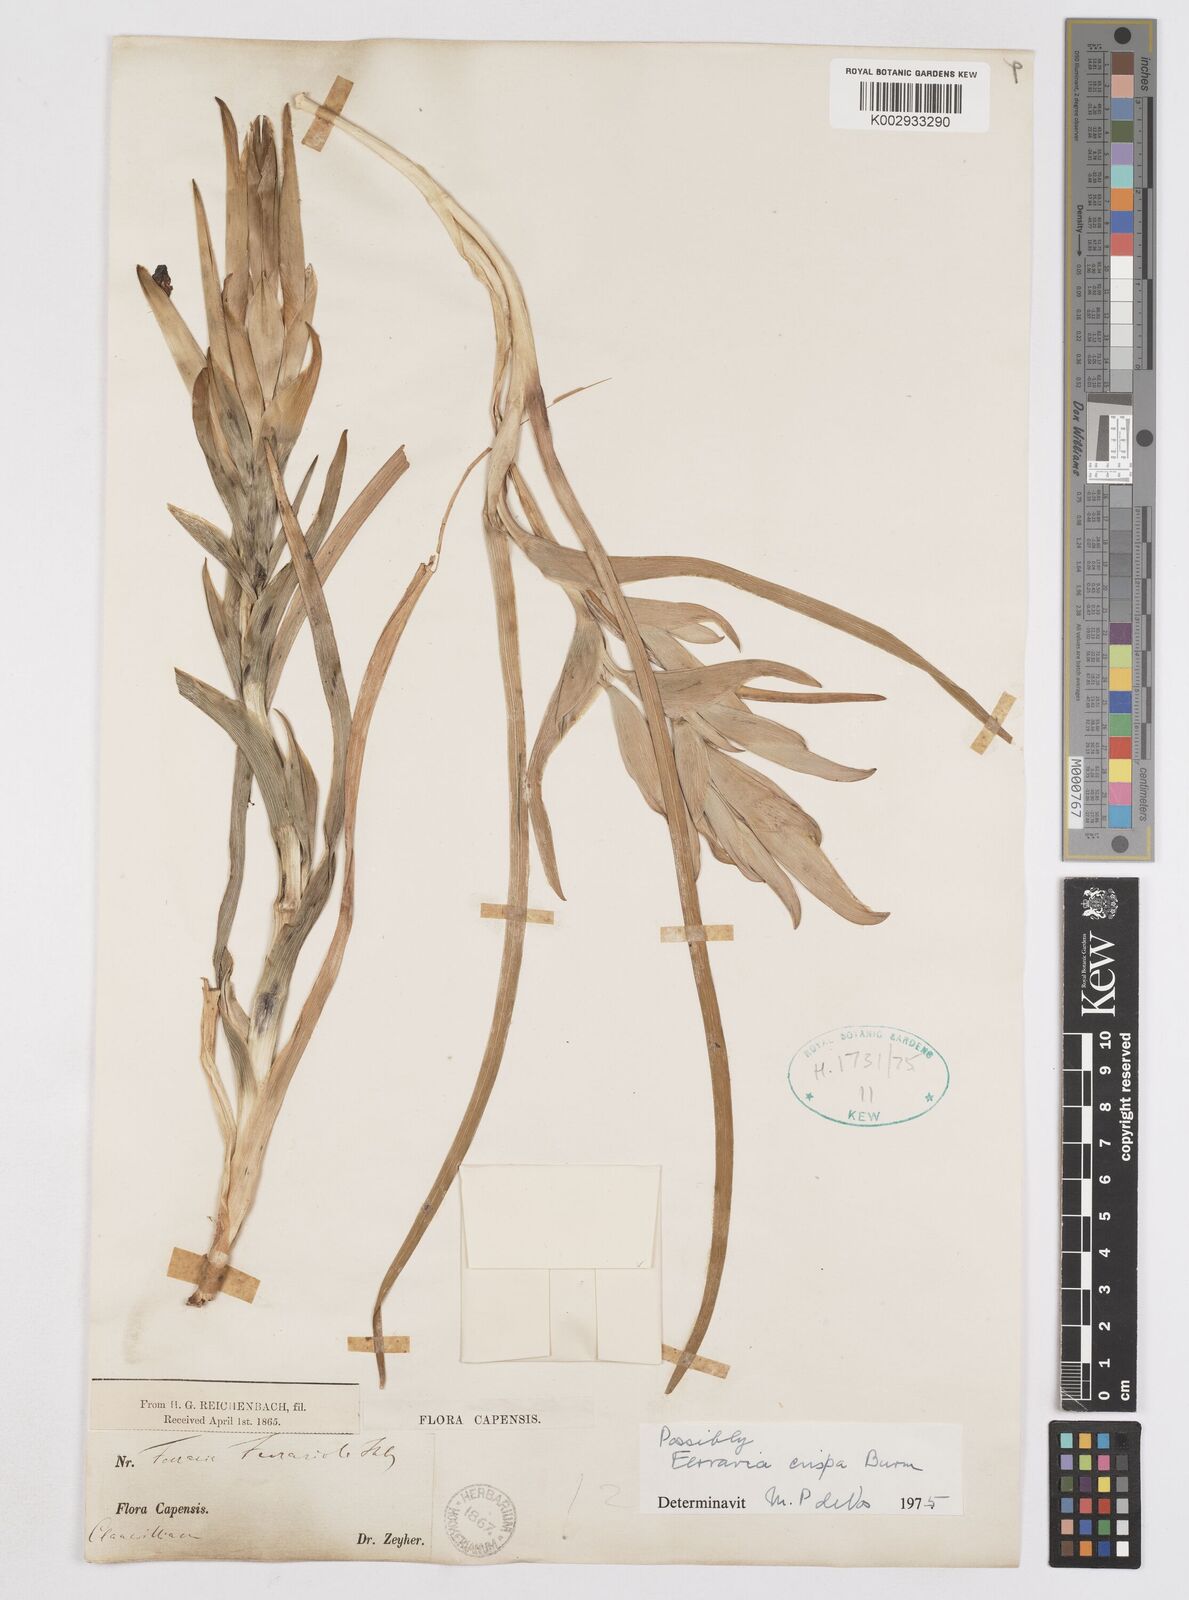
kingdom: Plantae
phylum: Tracheophyta
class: Liliopsida
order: Asparagales
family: Iridaceae
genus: Ferraria
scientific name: Ferraria crispa
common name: Black-flag
